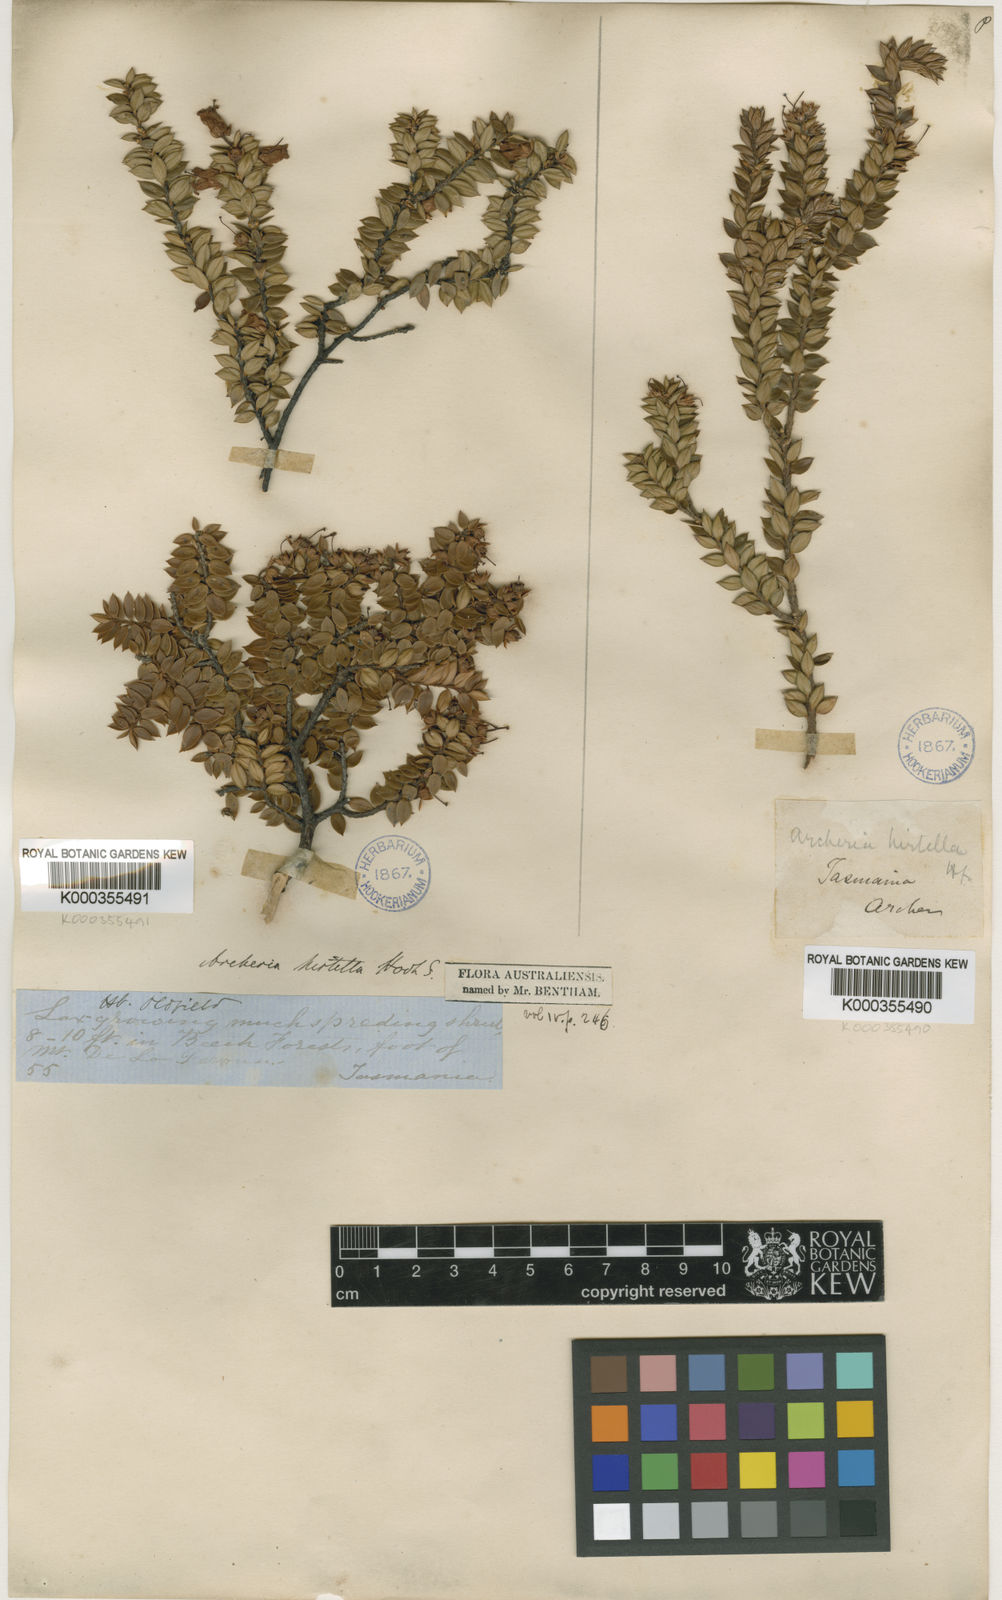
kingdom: Plantae
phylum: Tracheophyta
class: Magnoliopsida
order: Ericales
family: Ericaceae
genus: Archeria
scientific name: Archeria hirtella
